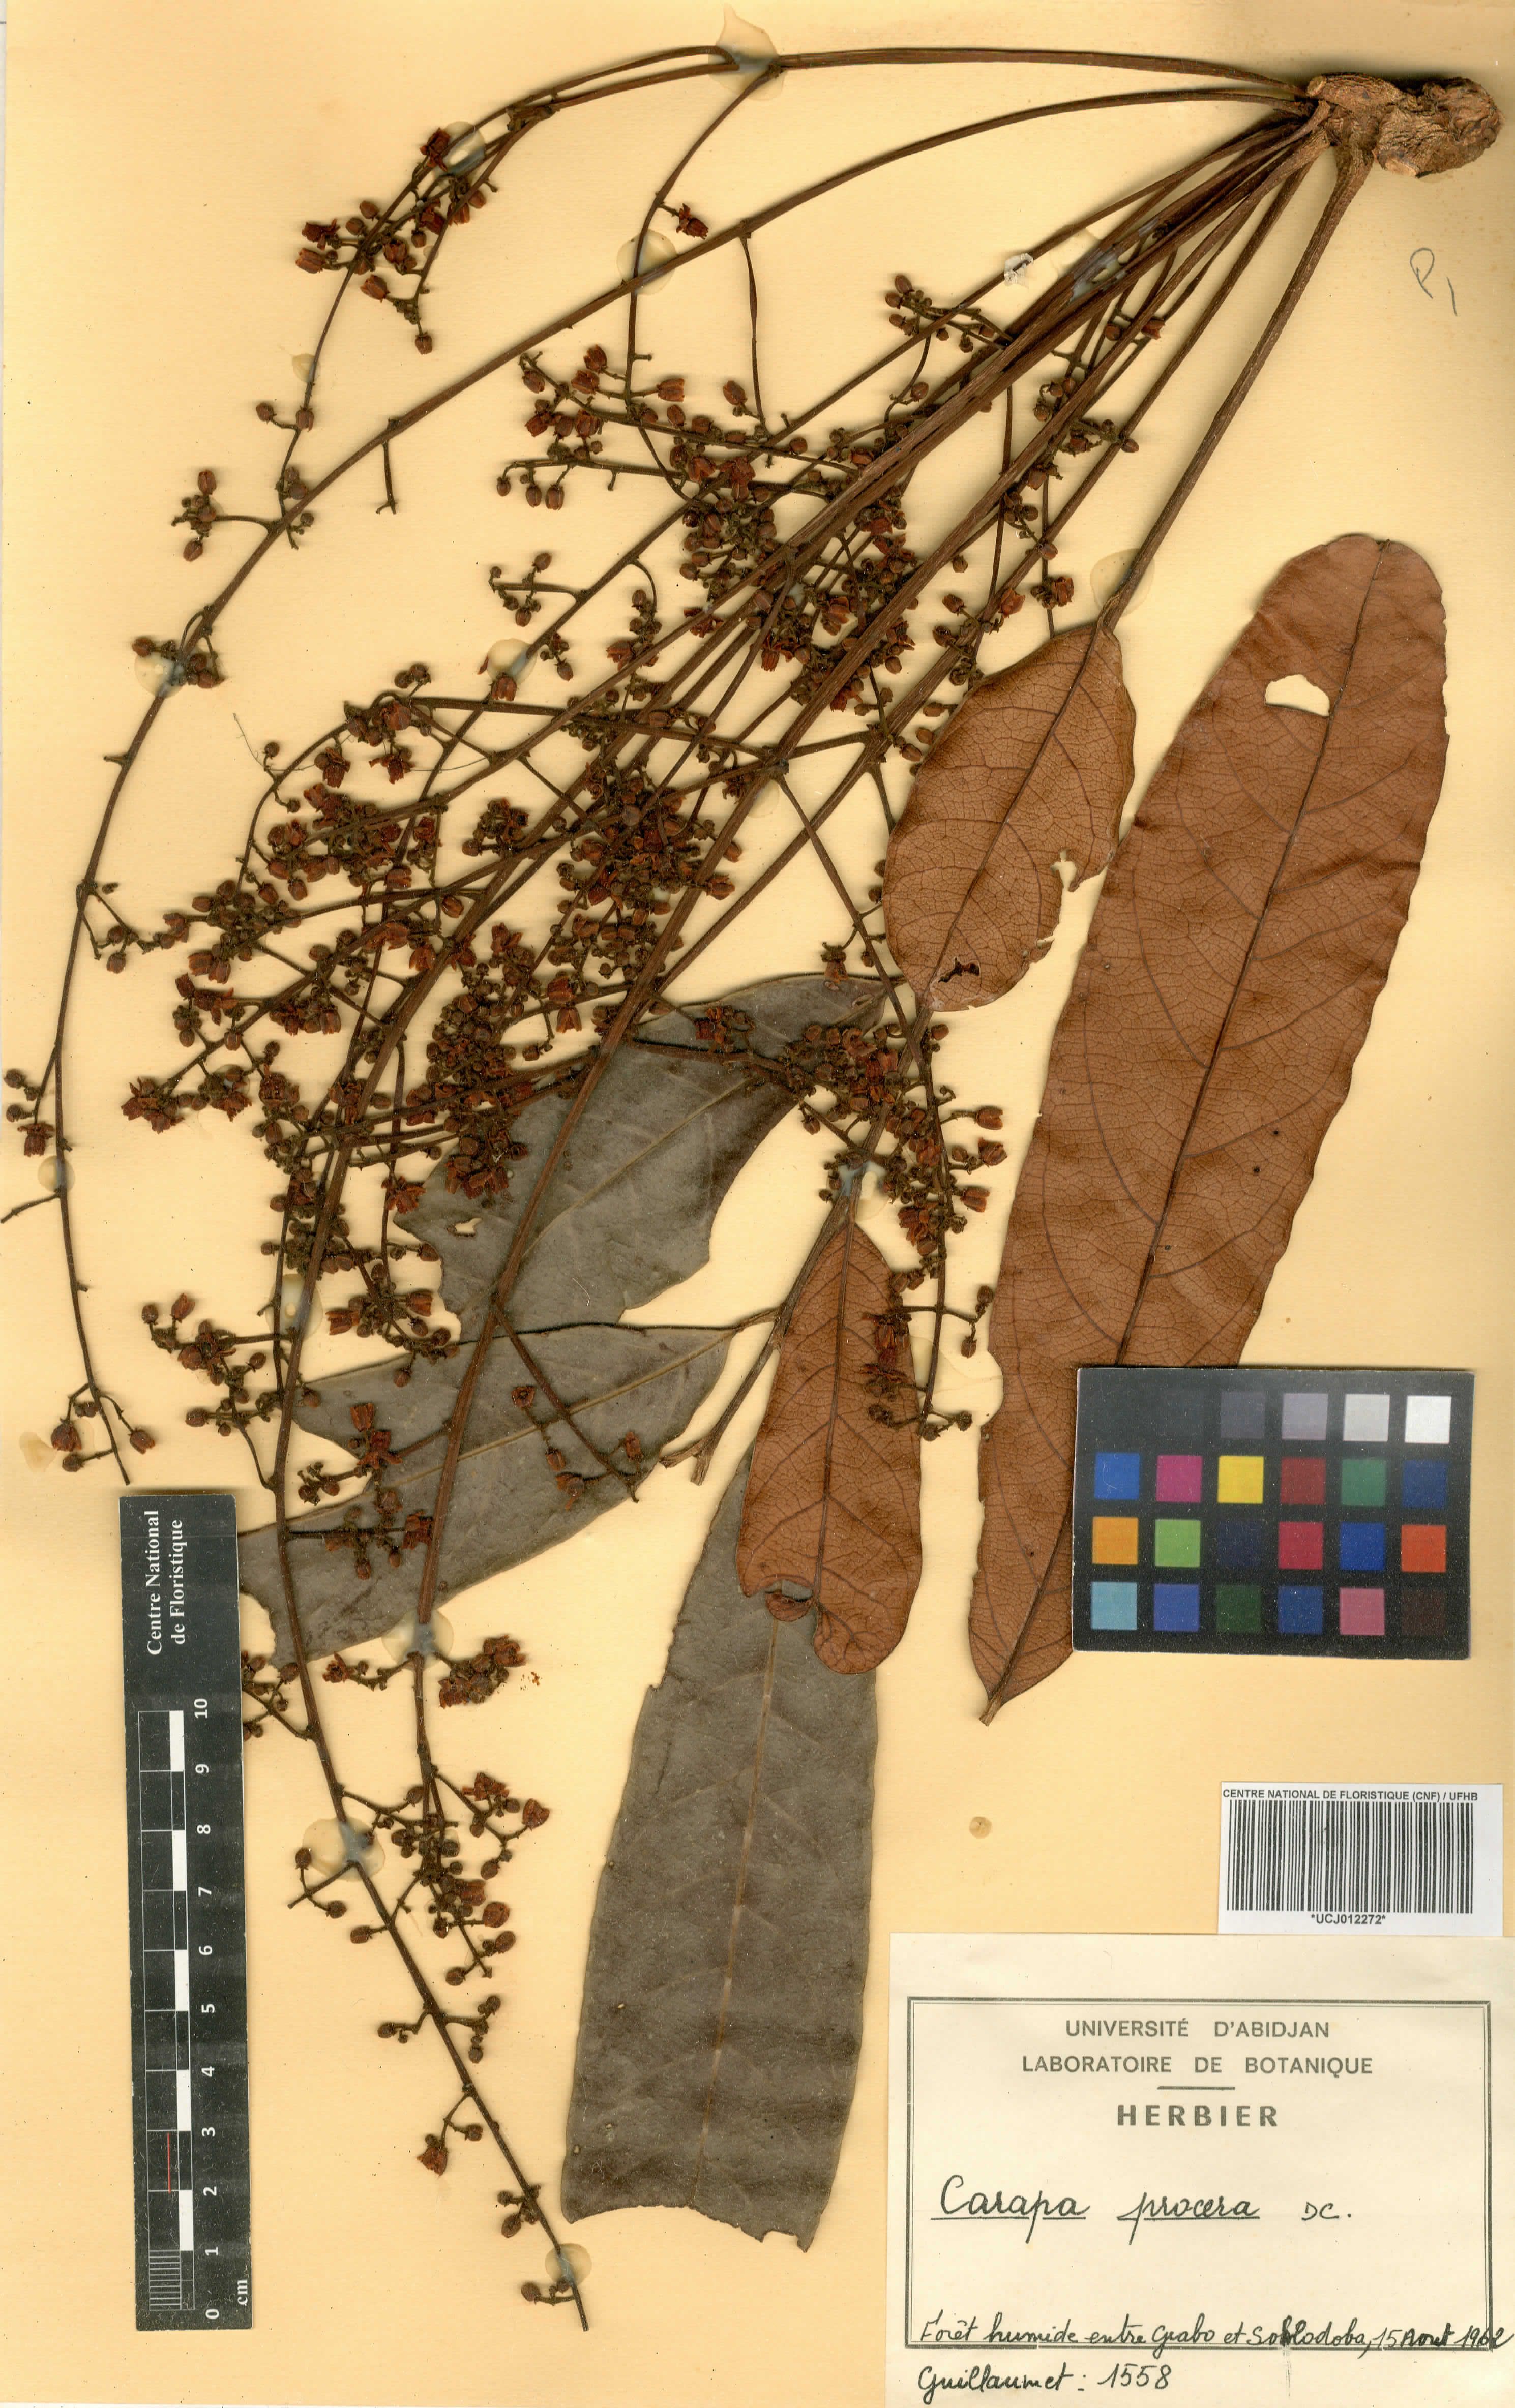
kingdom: Plantae
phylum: Tracheophyta
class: Magnoliopsida
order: Sapindales
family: Meliaceae
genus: Carapa
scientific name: Carapa procera
